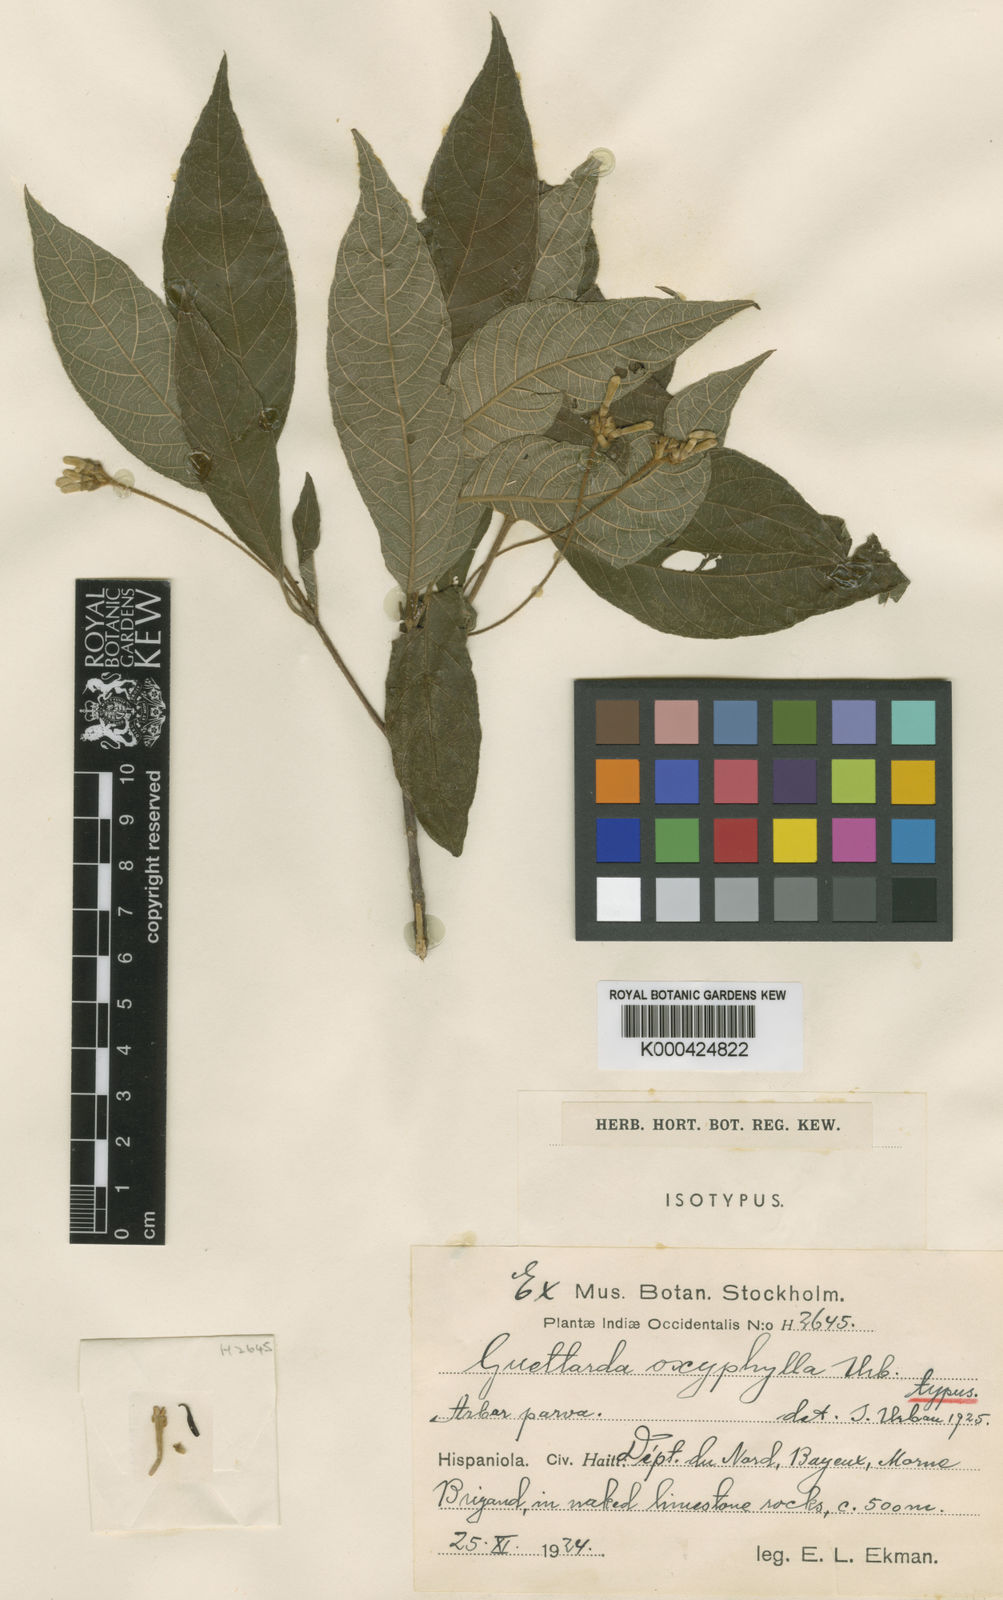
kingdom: Plantae
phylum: Tracheophyta
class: Magnoliopsida
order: Gentianales
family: Rubiaceae
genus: Guettarda
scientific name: Guettarda oxyphylla
